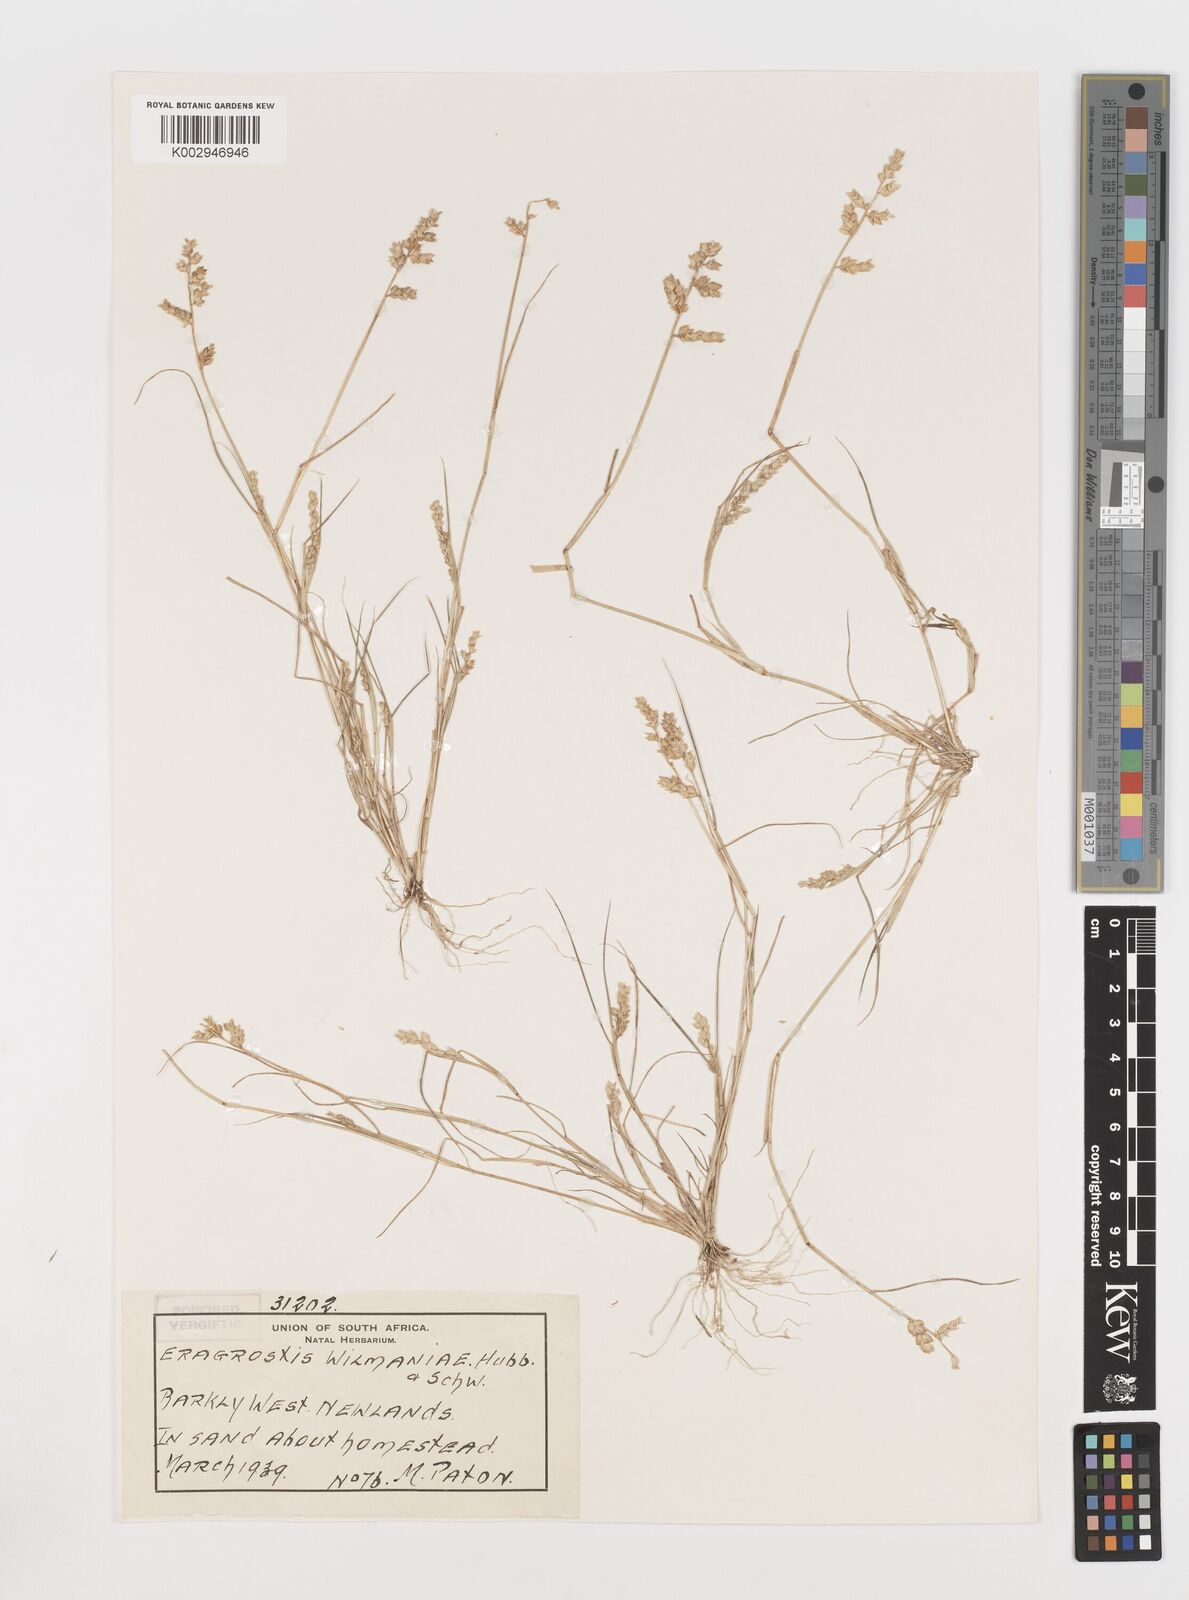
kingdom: Plantae
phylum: Tracheophyta
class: Liliopsida
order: Poales
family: Poaceae
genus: Eragrostis
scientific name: Eragrostis
